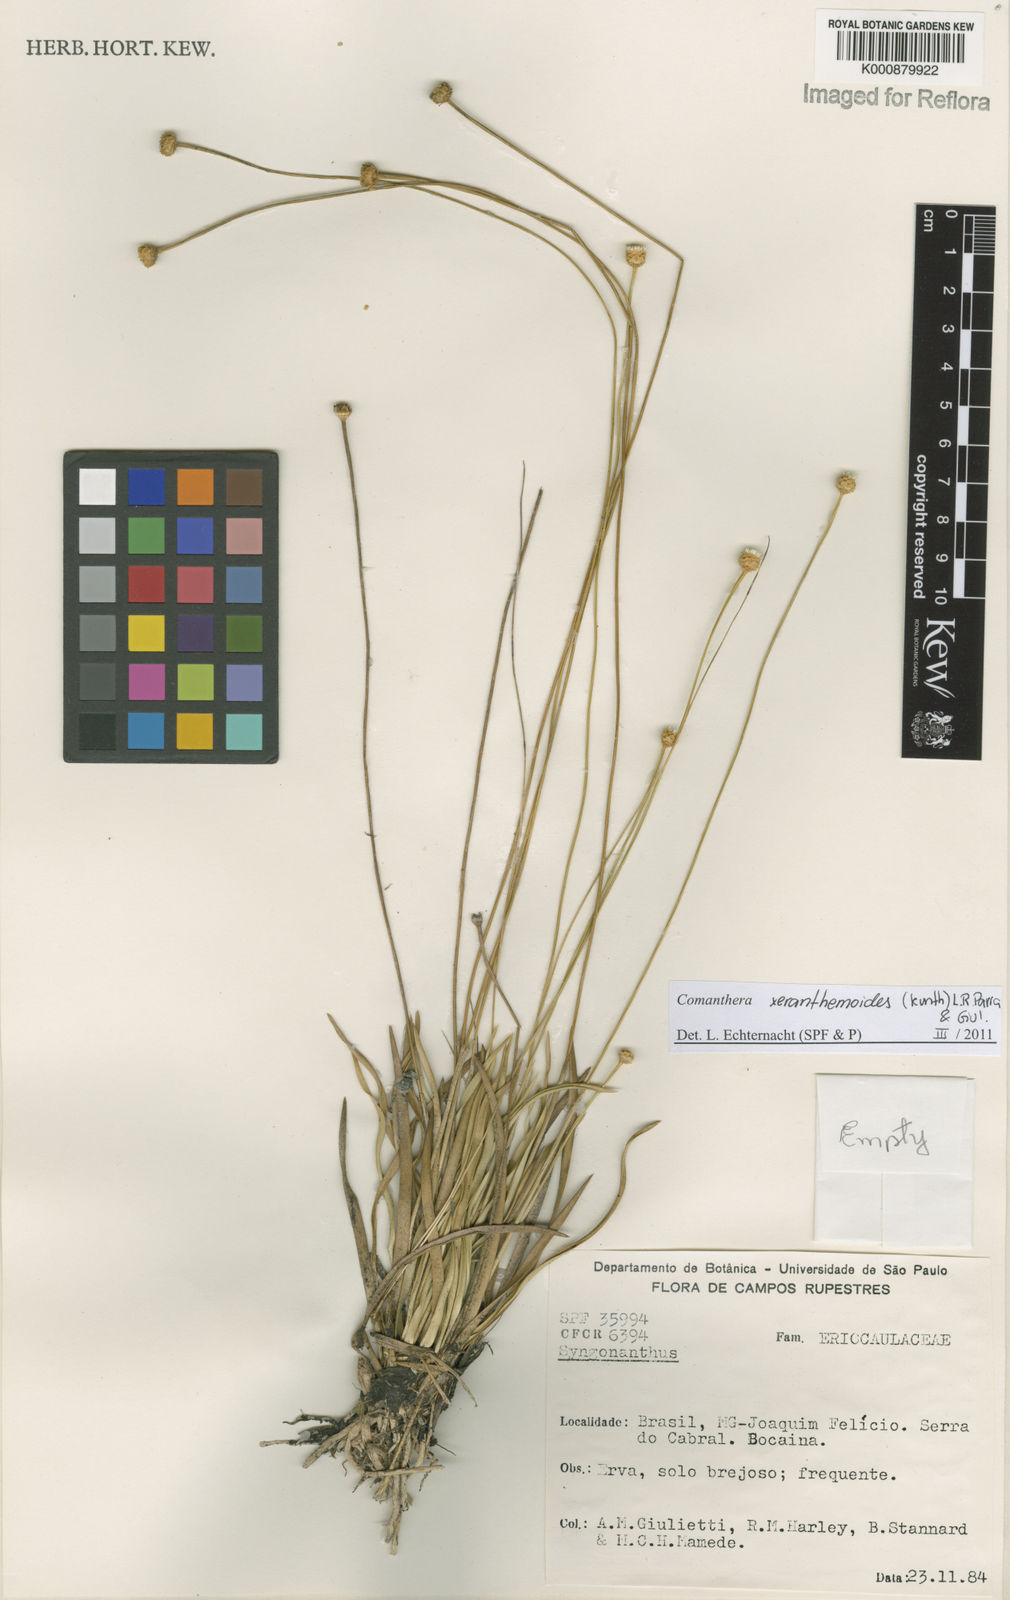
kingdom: Plantae
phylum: Tracheophyta
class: Liliopsida
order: Poales
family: Eriocaulaceae
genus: Comanthera
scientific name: Comanthera xeranthemoides
